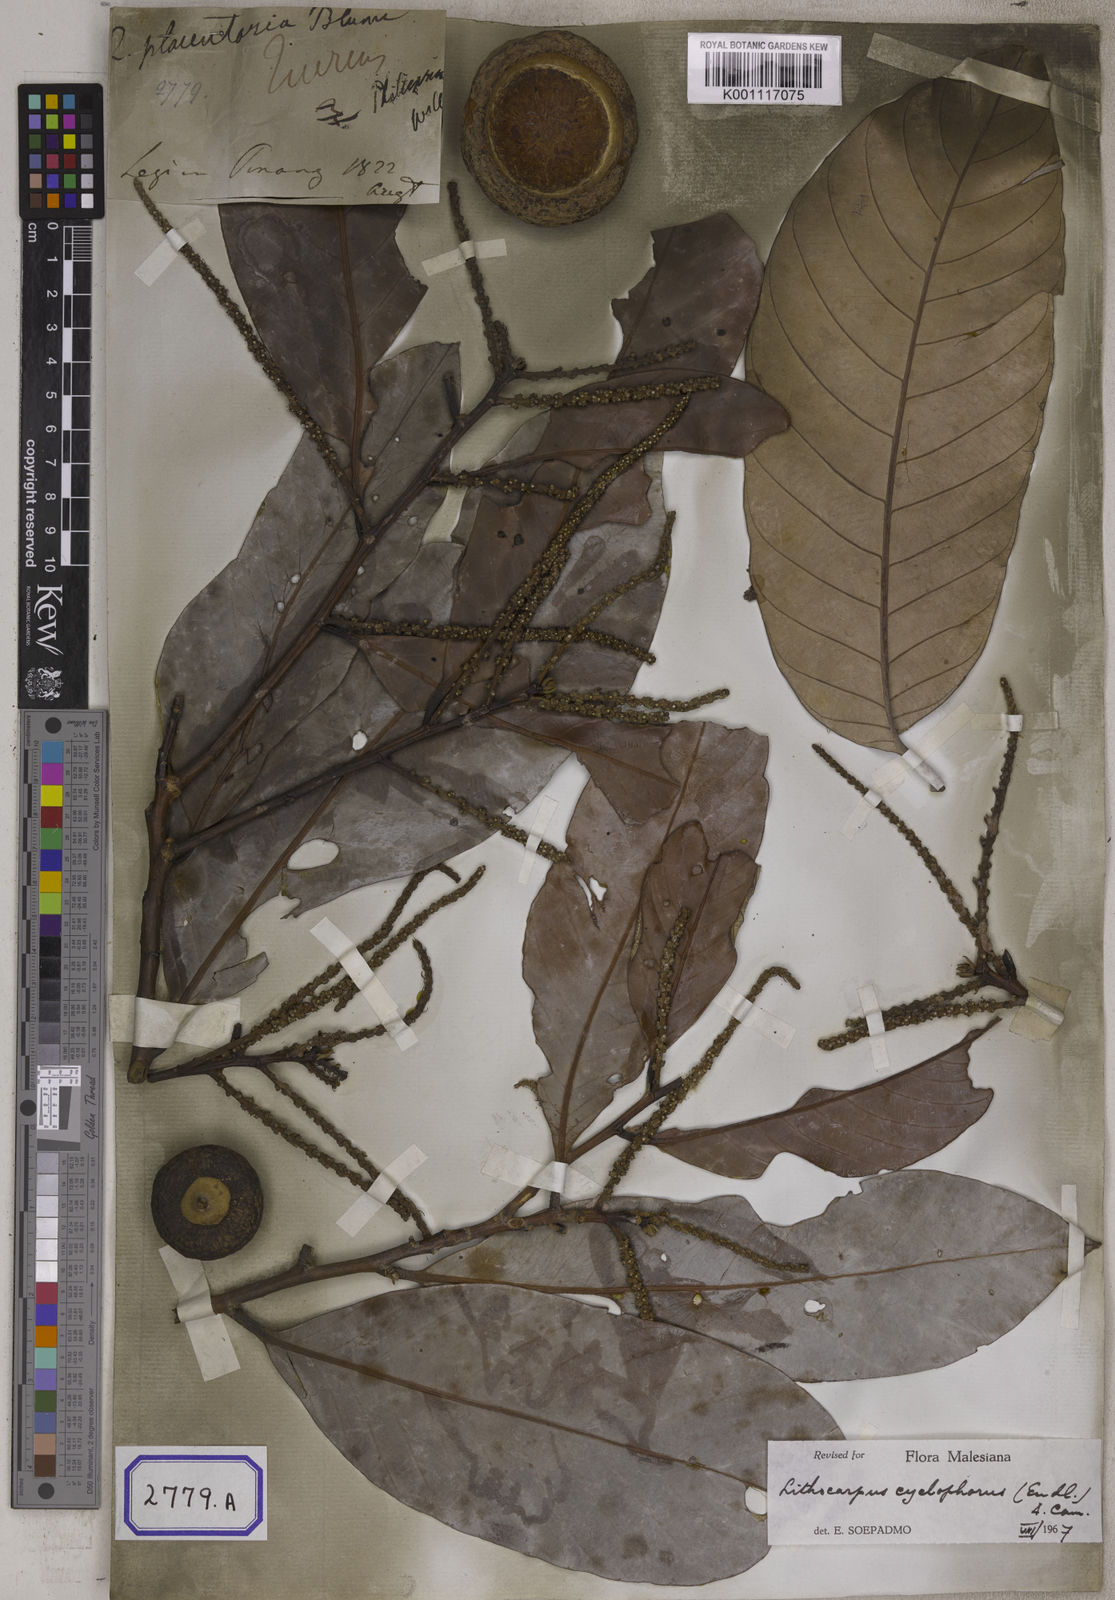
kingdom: Plantae
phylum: Tracheophyta
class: Magnoliopsida
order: Fagales
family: Fagaceae
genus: Lithocarpus
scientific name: Lithocarpus cyclophorus
